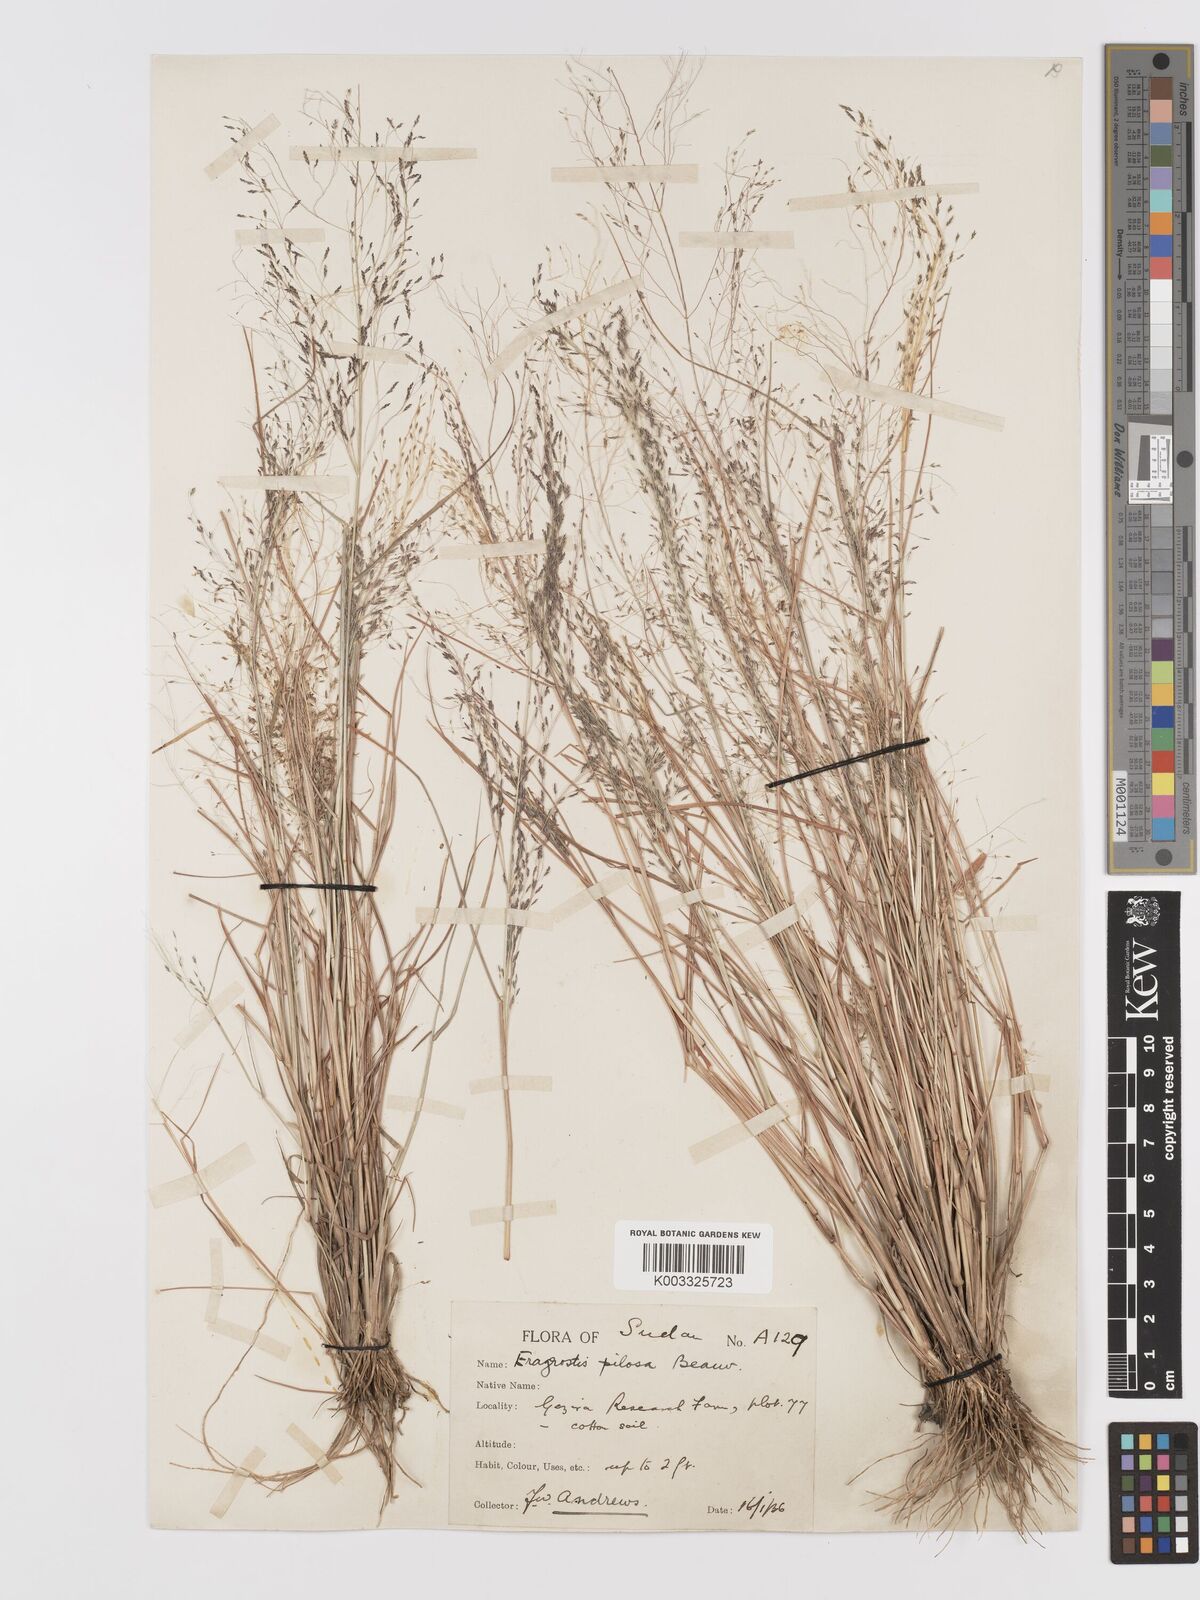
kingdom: Plantae
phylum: Tracheophyta
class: Liliopsida
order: Poales
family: Poaceae
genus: Eragrostis
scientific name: Eragrostis pilosa
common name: Indian lovegrass
